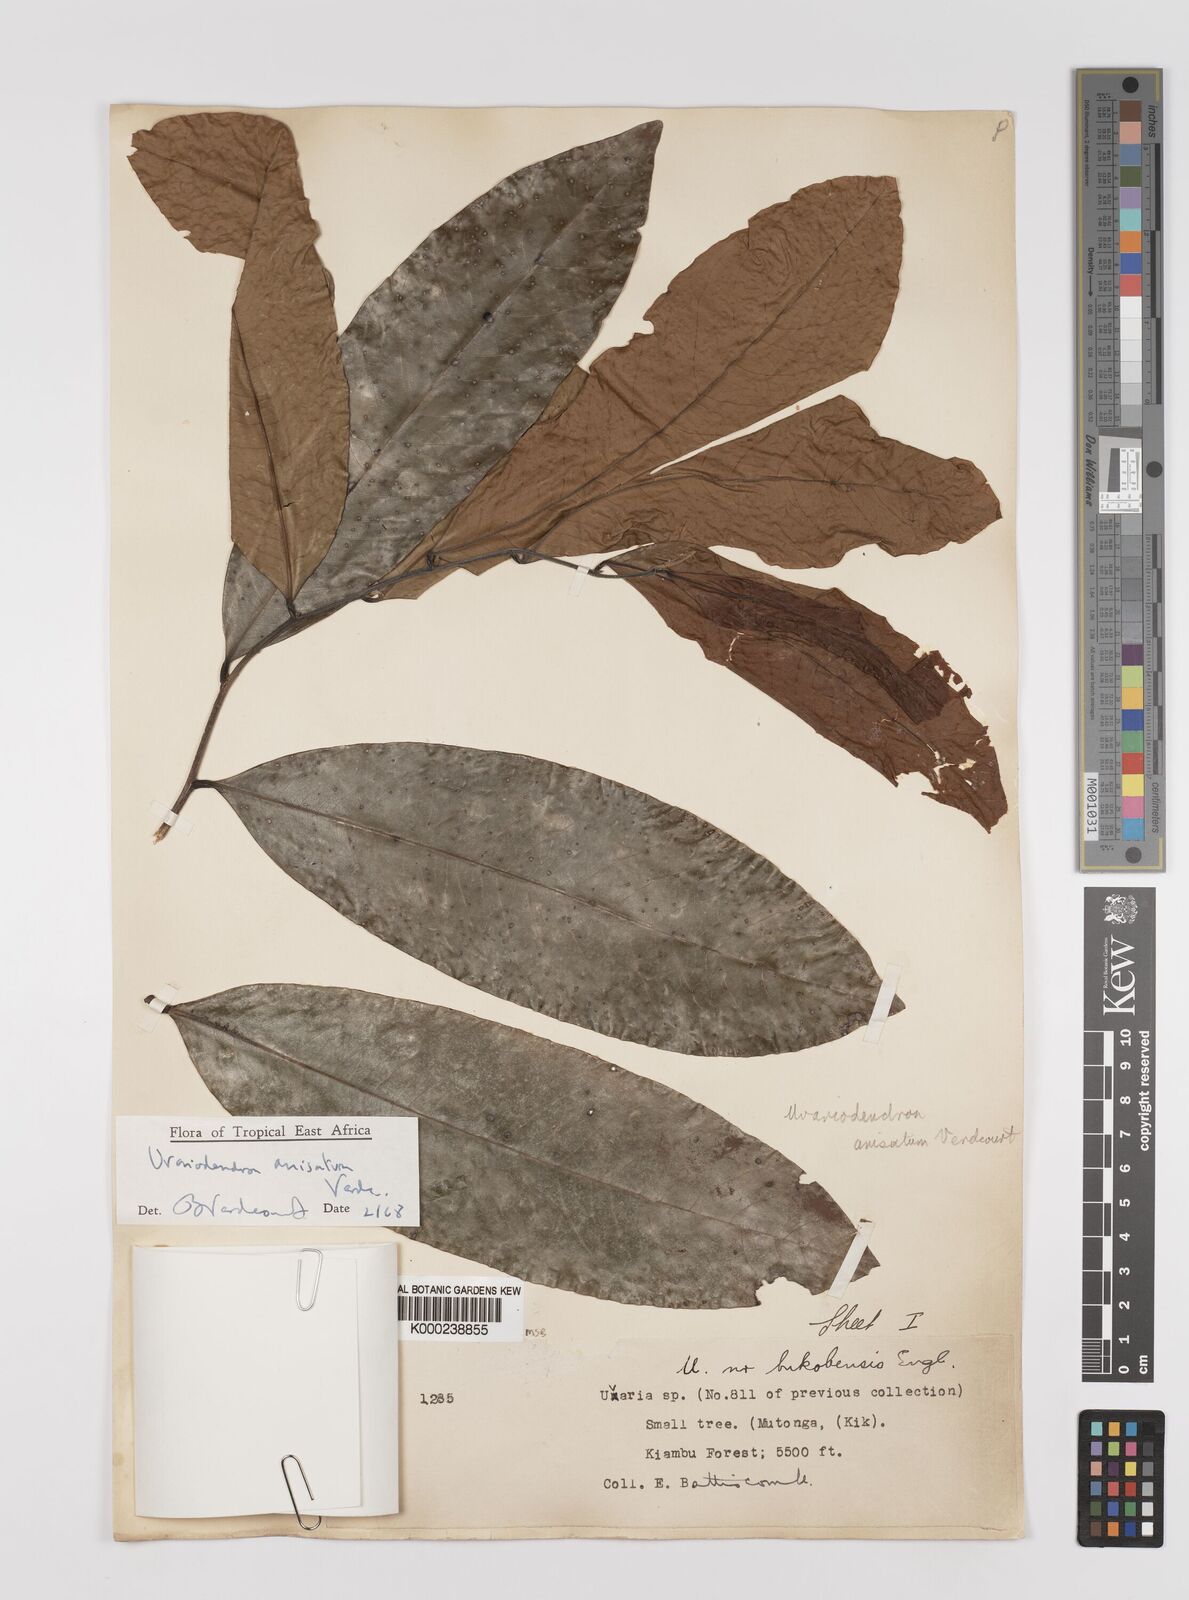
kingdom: Plantae
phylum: Tracheophyta
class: Magnoliopsida
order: Magnoliales
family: Annonaceae
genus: Uvariodendron
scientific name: Uvariodendron anisatum
